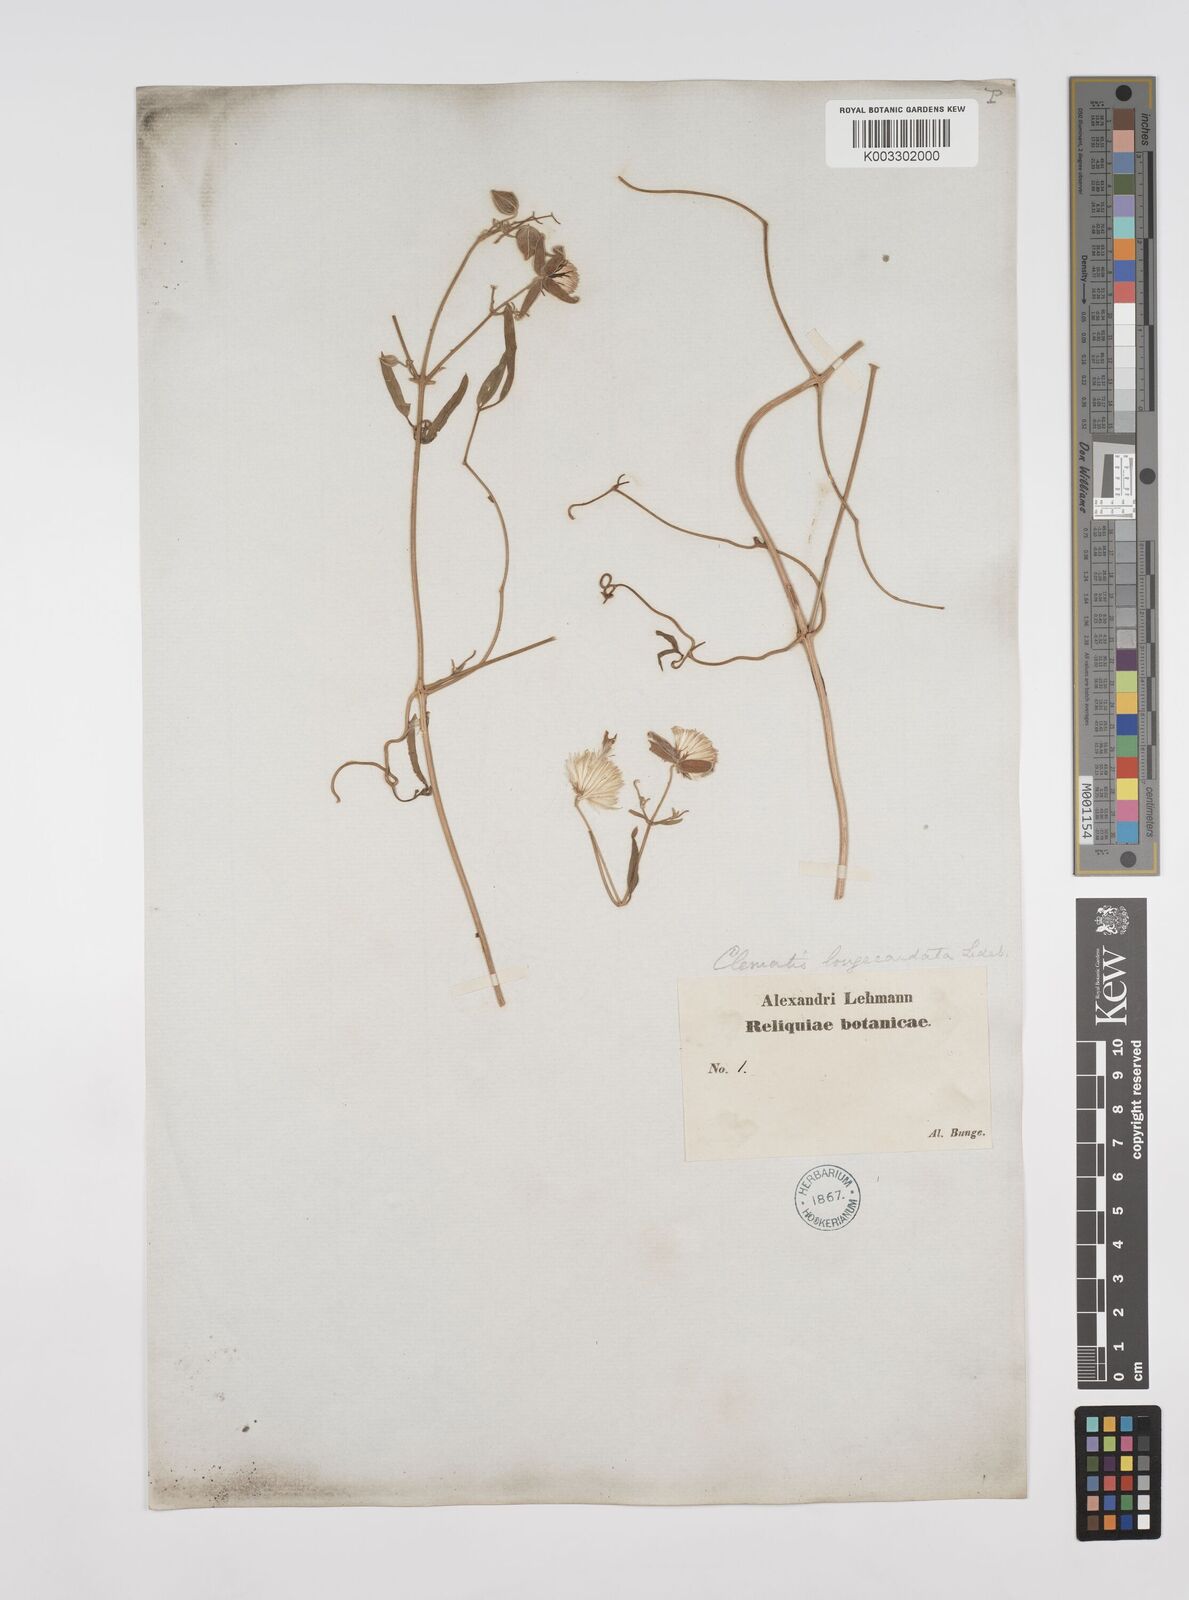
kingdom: Plantae
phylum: Tracheophyta
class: Magnoliopsida
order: Ranunculales
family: Ranunculaceae
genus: Clematis
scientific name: Clematis orientalis
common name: Oriental virgin's-bower
